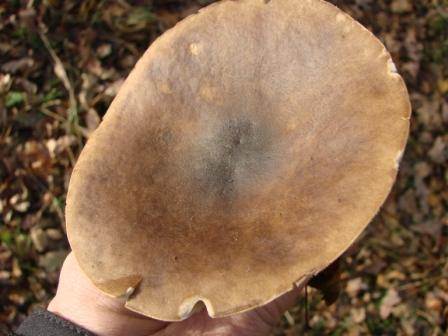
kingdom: Fungi
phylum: Basidiomycota
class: Agaricomycetes
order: Agaricales
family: Tricholomataceae
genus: Melanoleuca
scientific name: Melanoleuca exscissa
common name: gusten munkehat
